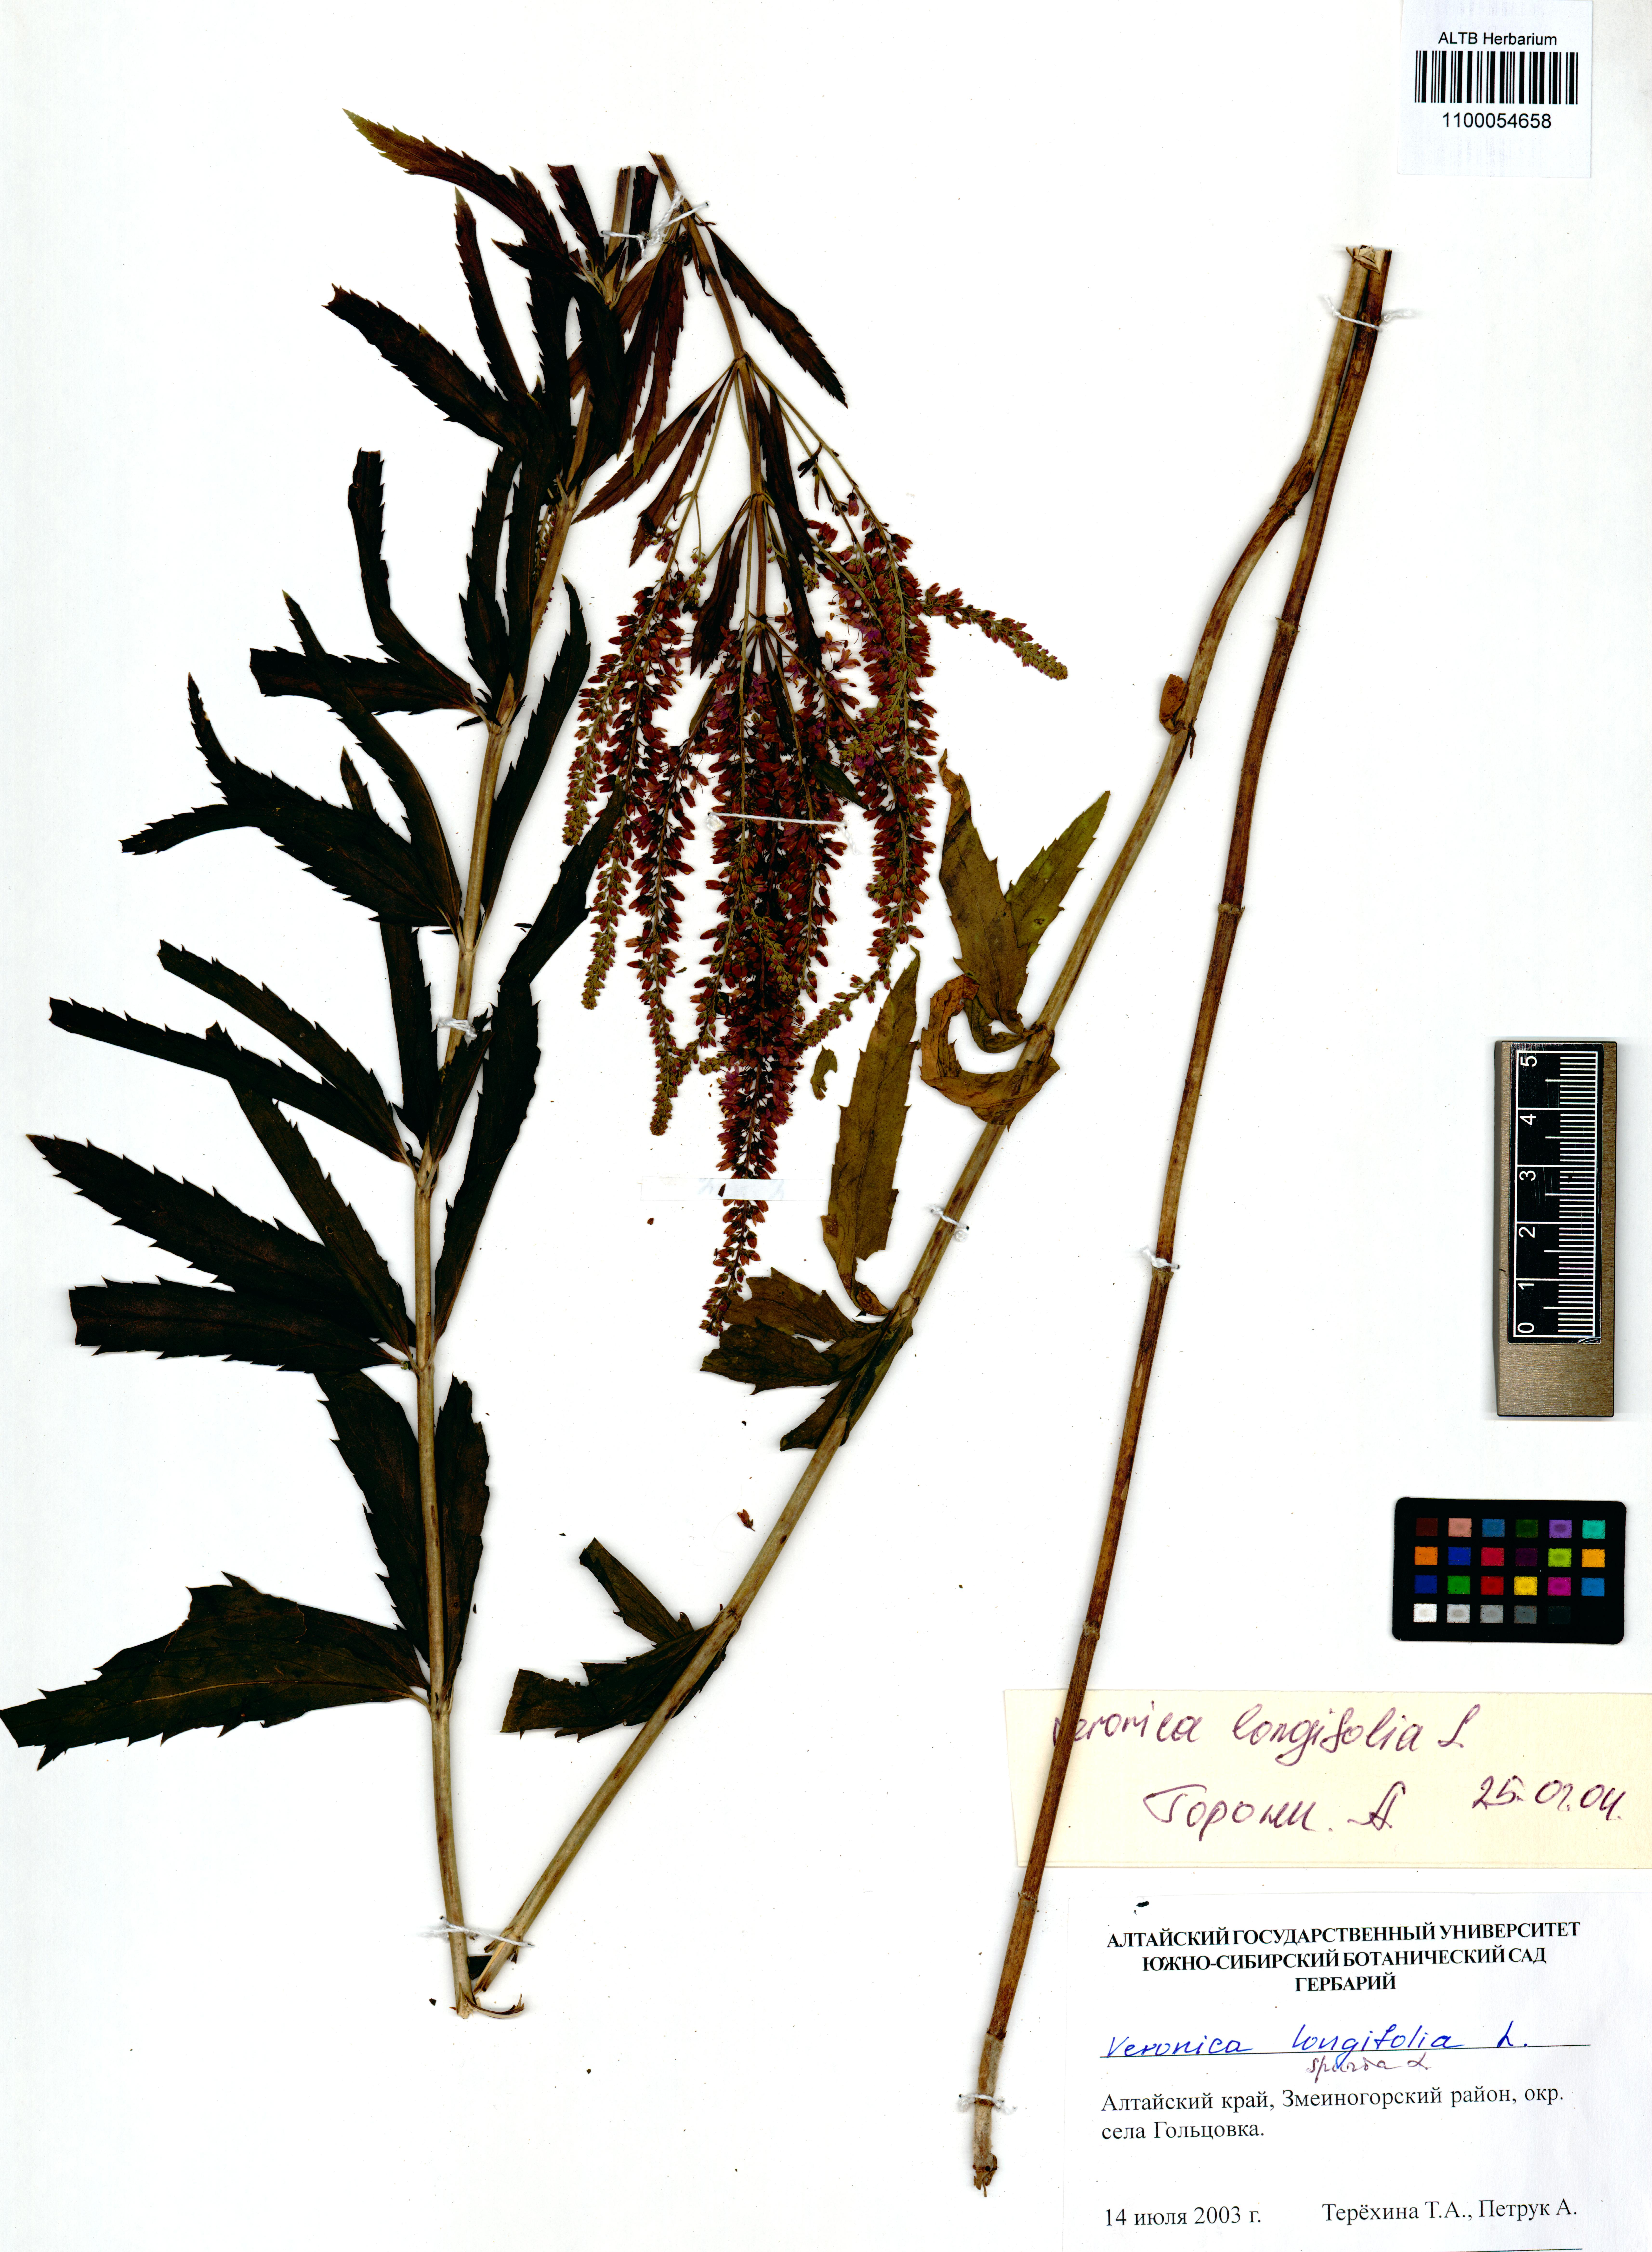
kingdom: Plantae
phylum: Tracheophyta
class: Magnoliopsida
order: Lamiales
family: Plantaginaceae
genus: Veronica
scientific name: Veronica longifolia
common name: Garden speedwell
